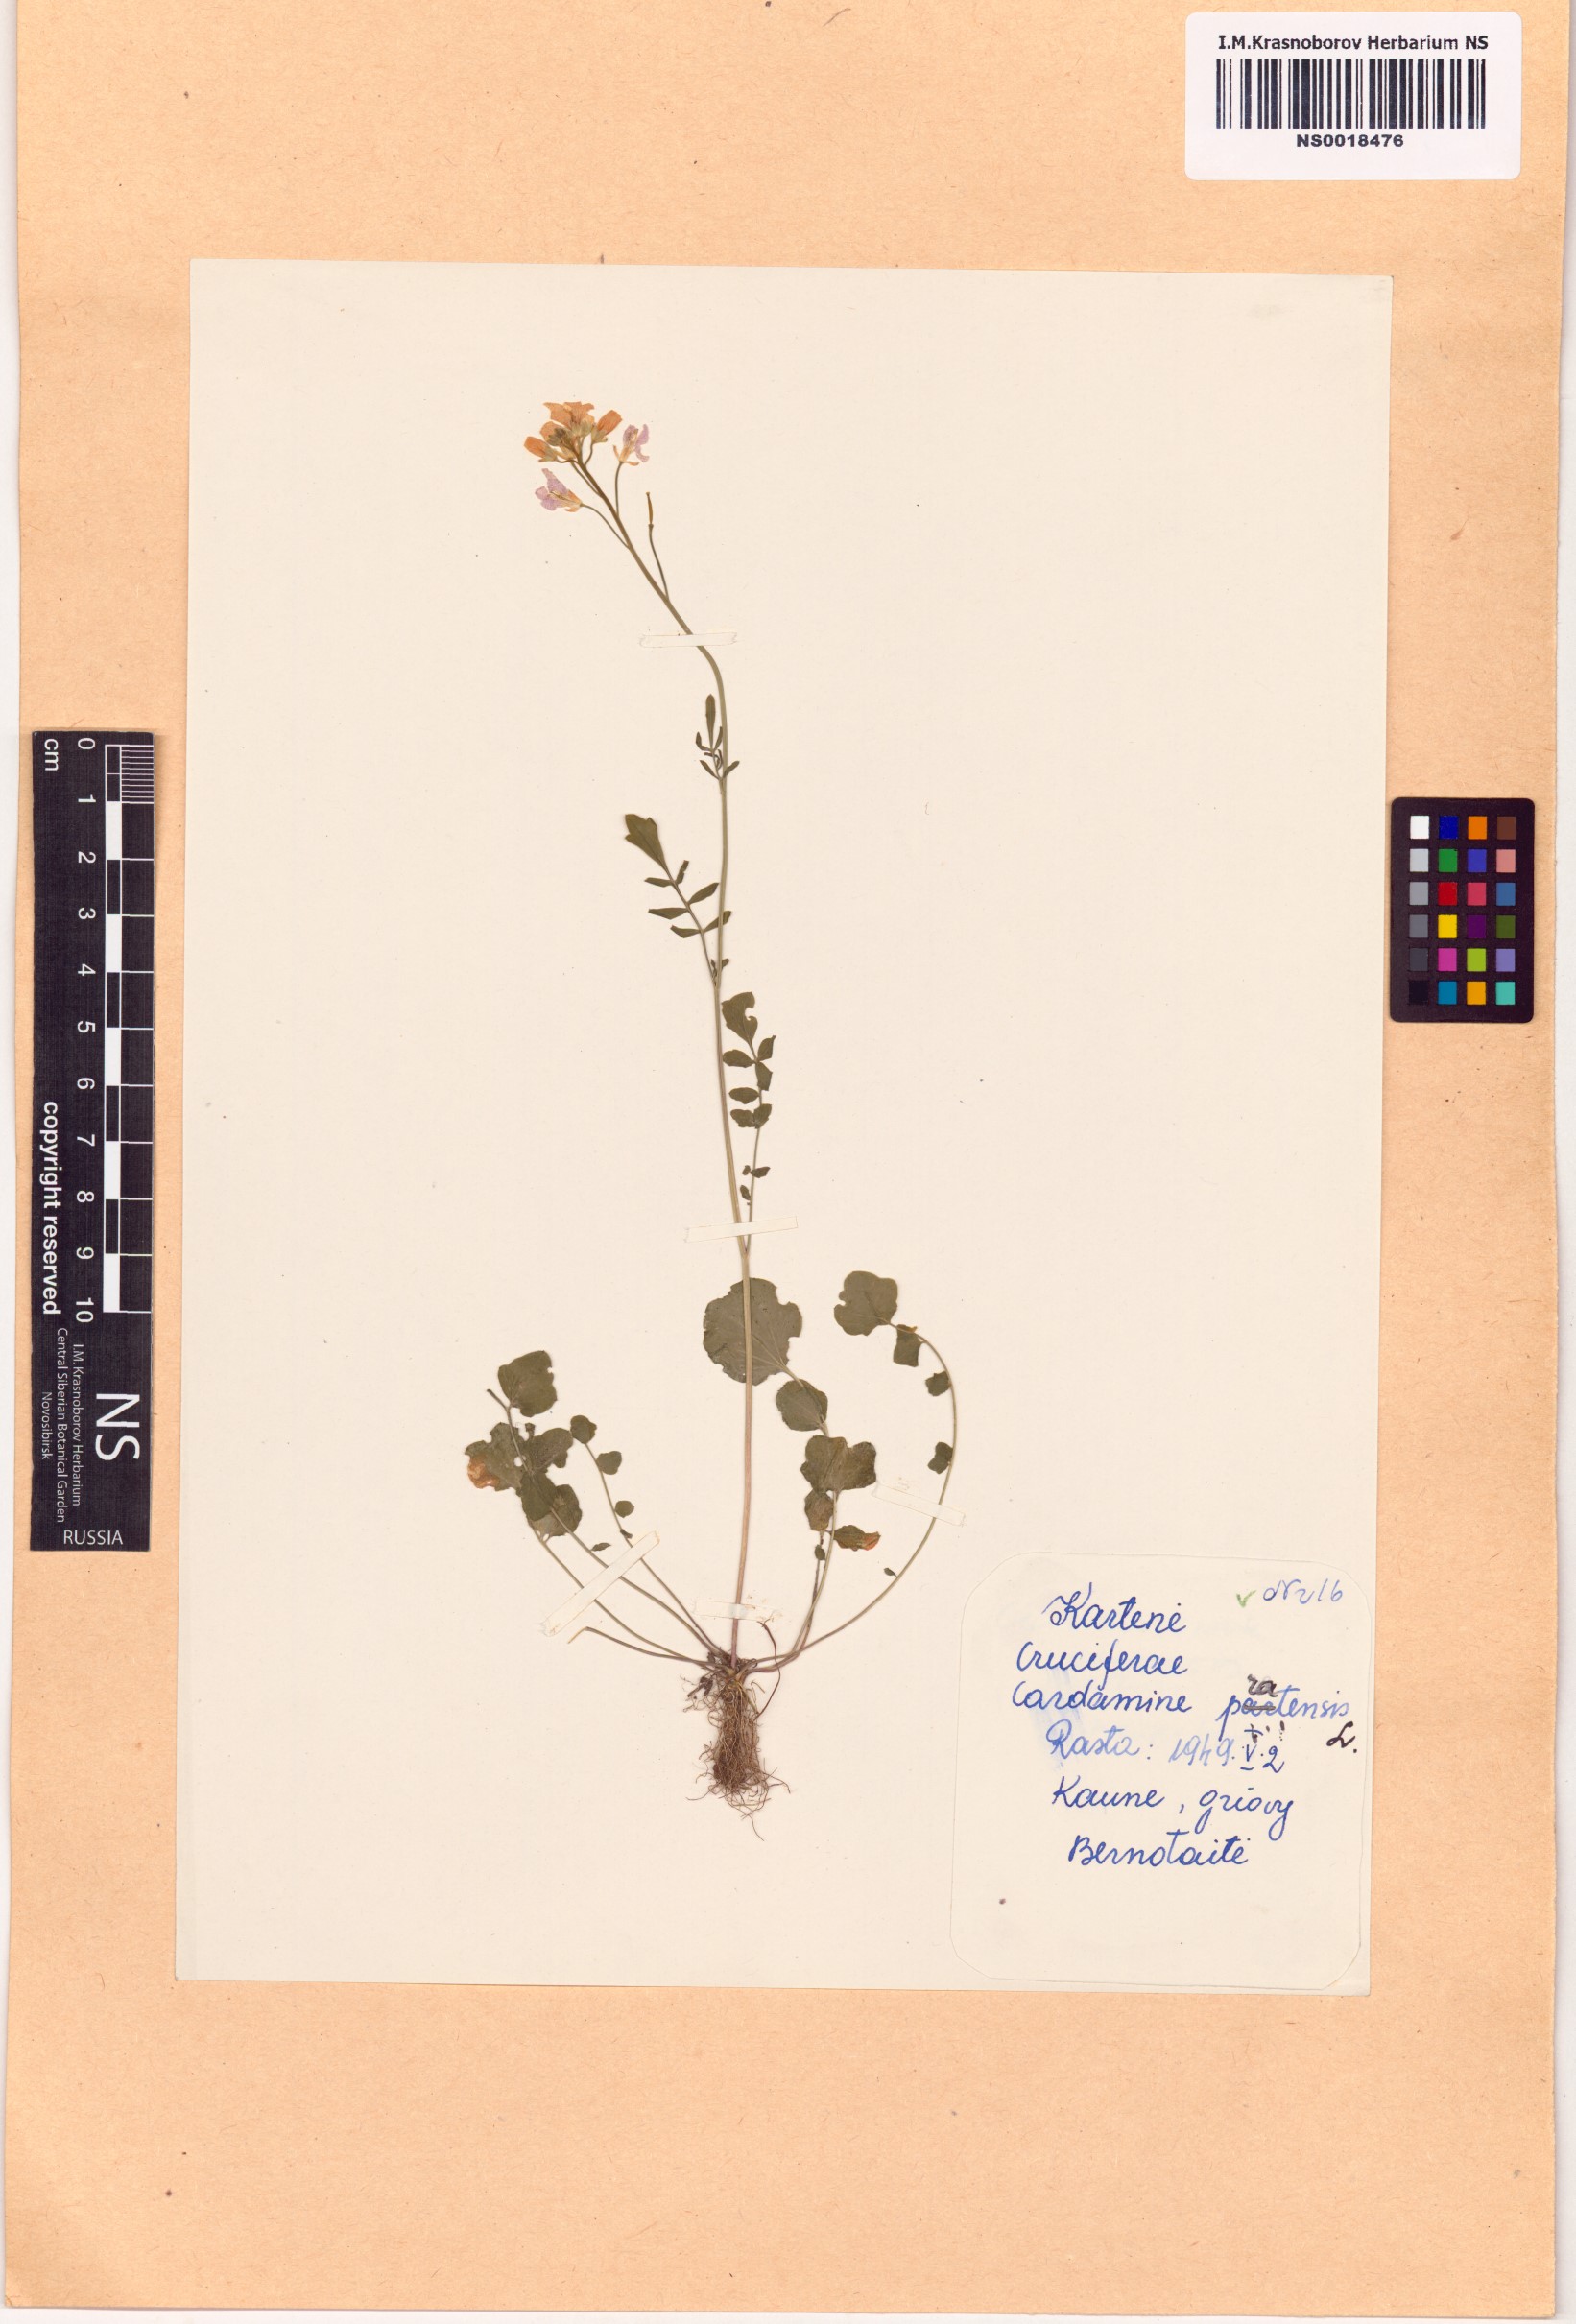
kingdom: Plantae
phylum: Tracheophyta
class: Magnoliopsida
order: Brassicales
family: Brassicaceae
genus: Cardamine
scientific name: Cardamine pratensis
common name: Cuckoo flower
